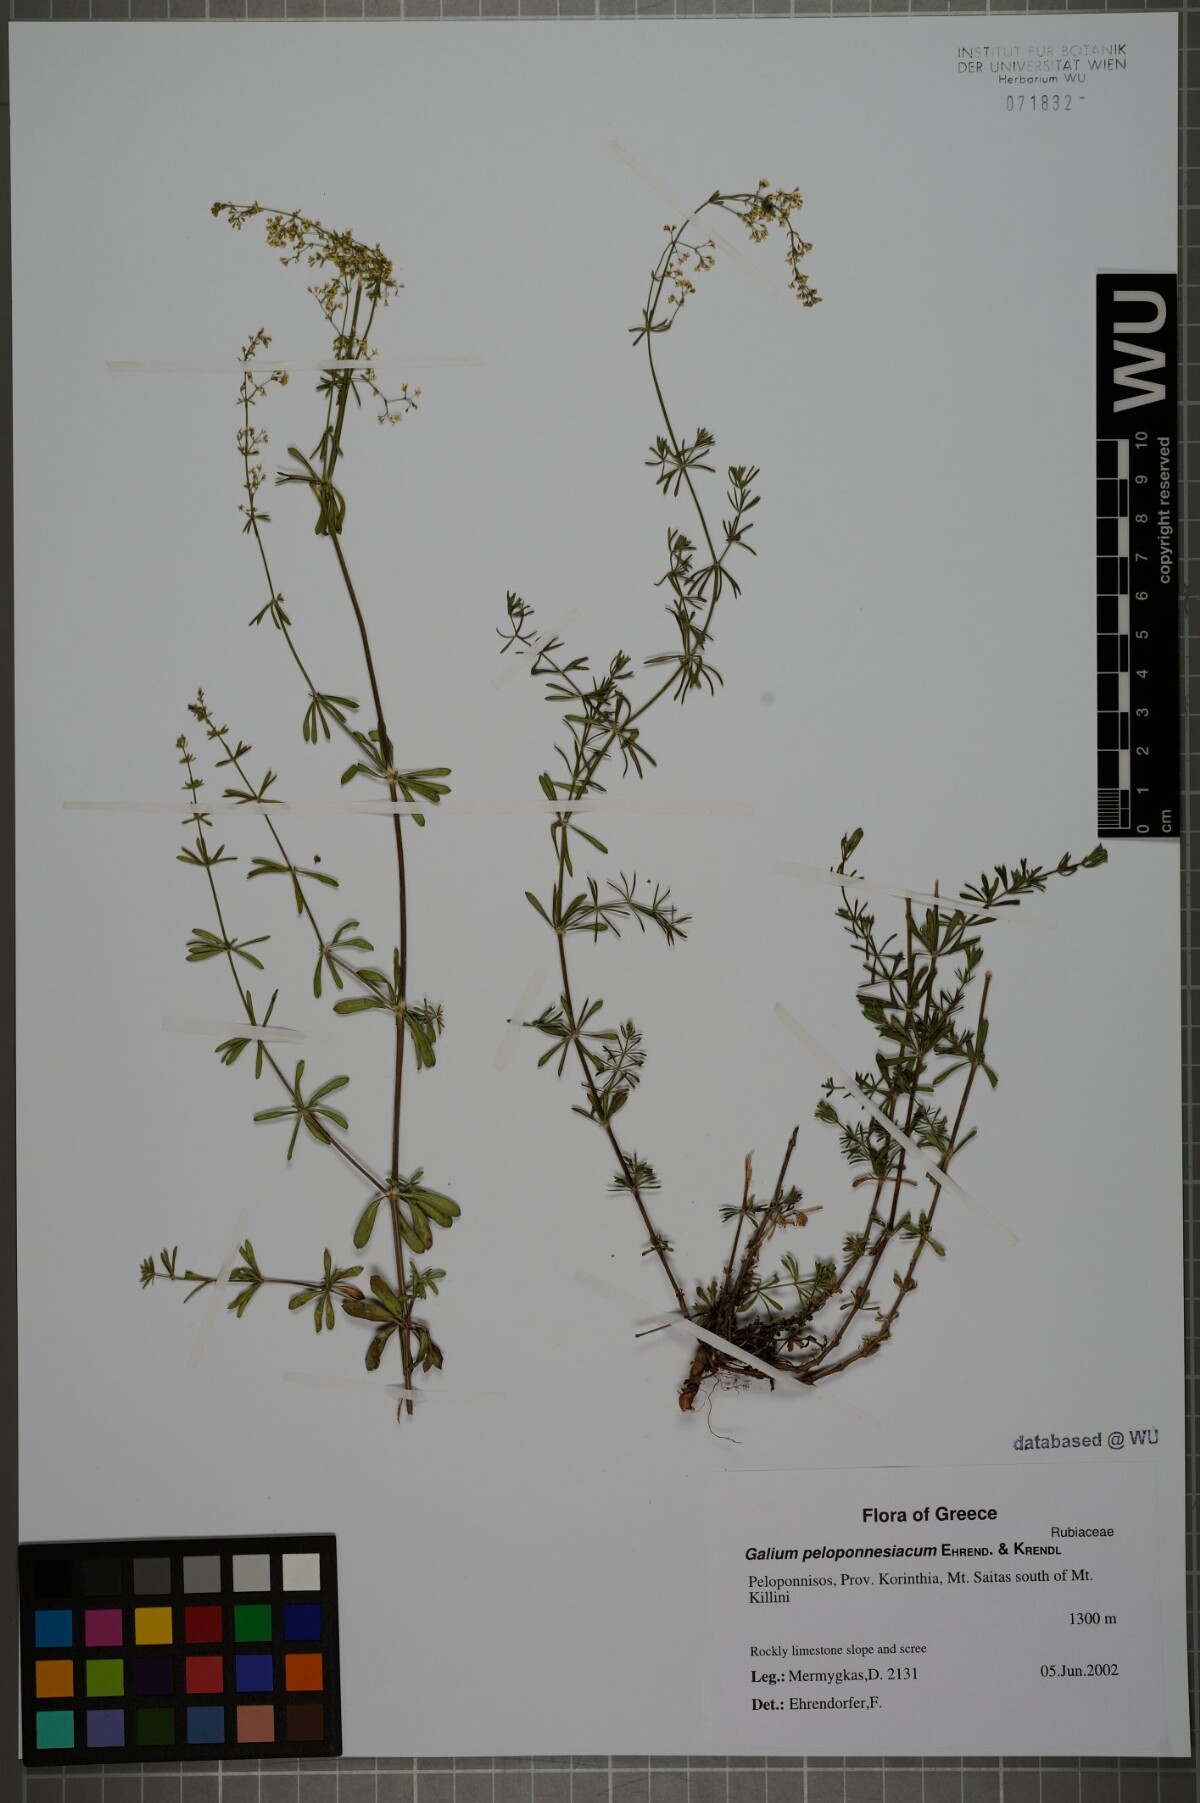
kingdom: Plantae
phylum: Tracheophyta
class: Magnoliopsida
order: Gentianales
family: Rubiaceae
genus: Galium
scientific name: Galium peloponnesiacum
